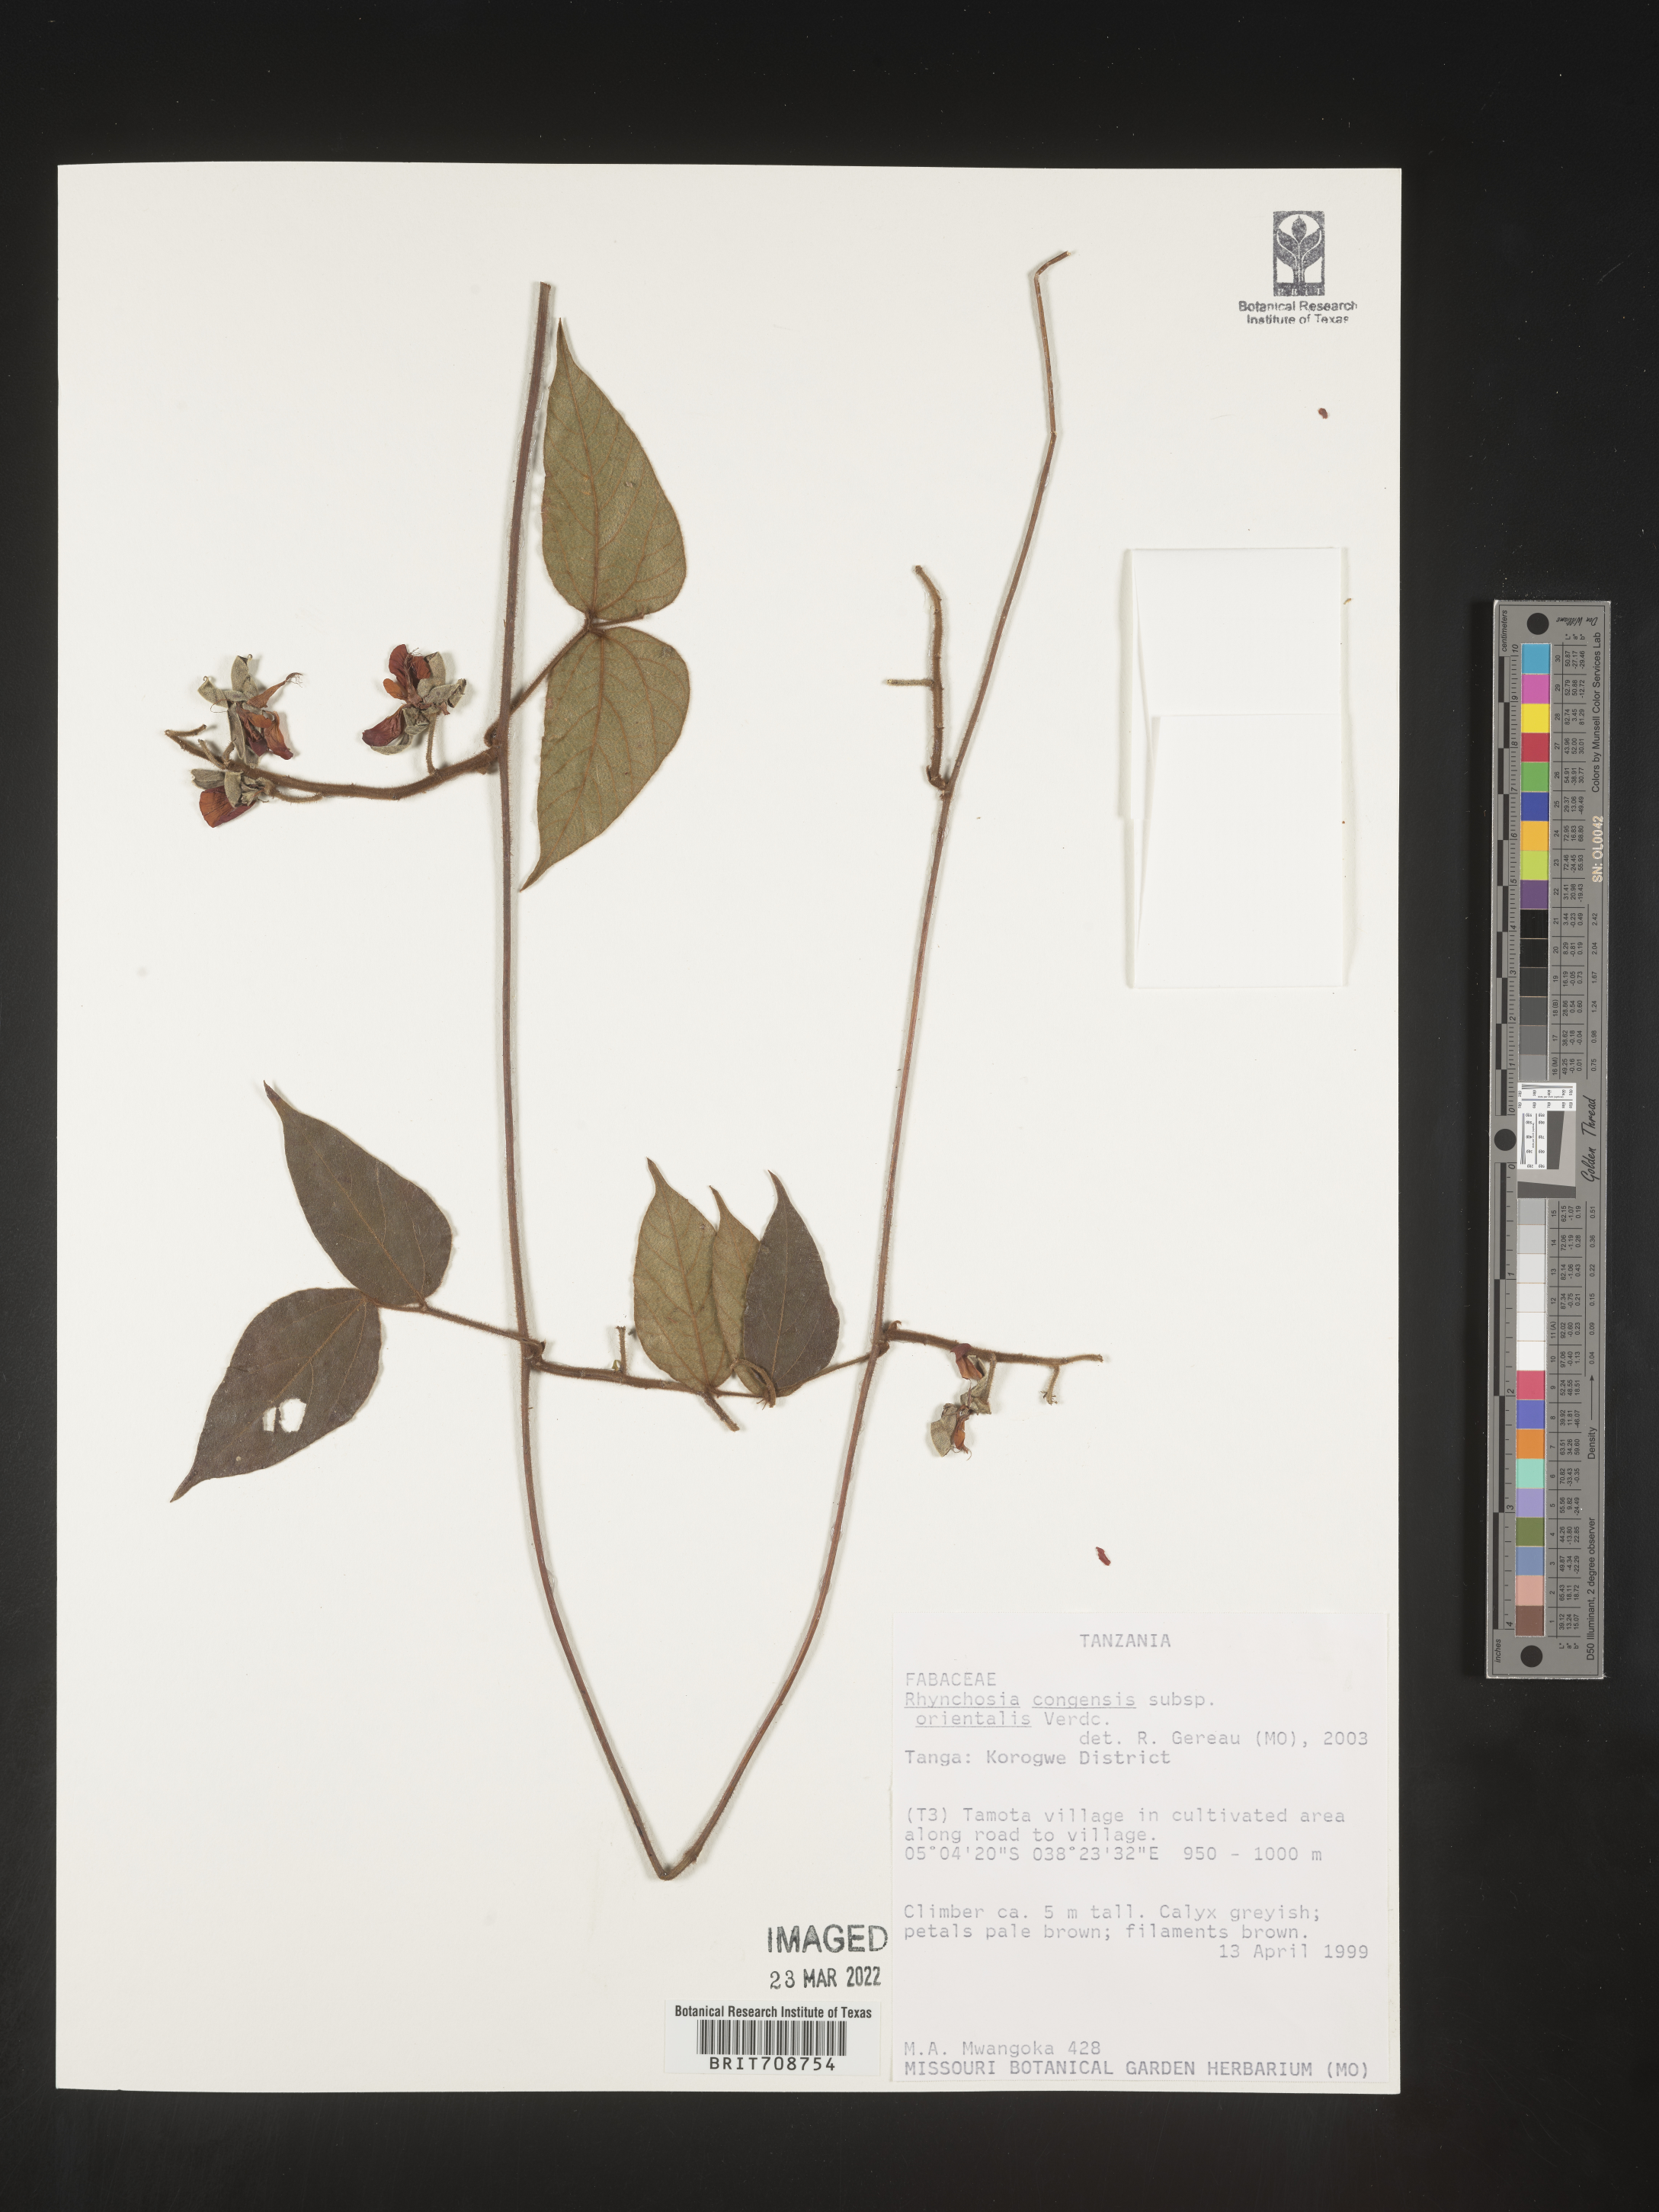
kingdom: Plantae
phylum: Tracheophyta
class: Magnoliopsida
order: Fabales
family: Fabaceae
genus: Rhynchosia
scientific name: Rhynchosia
